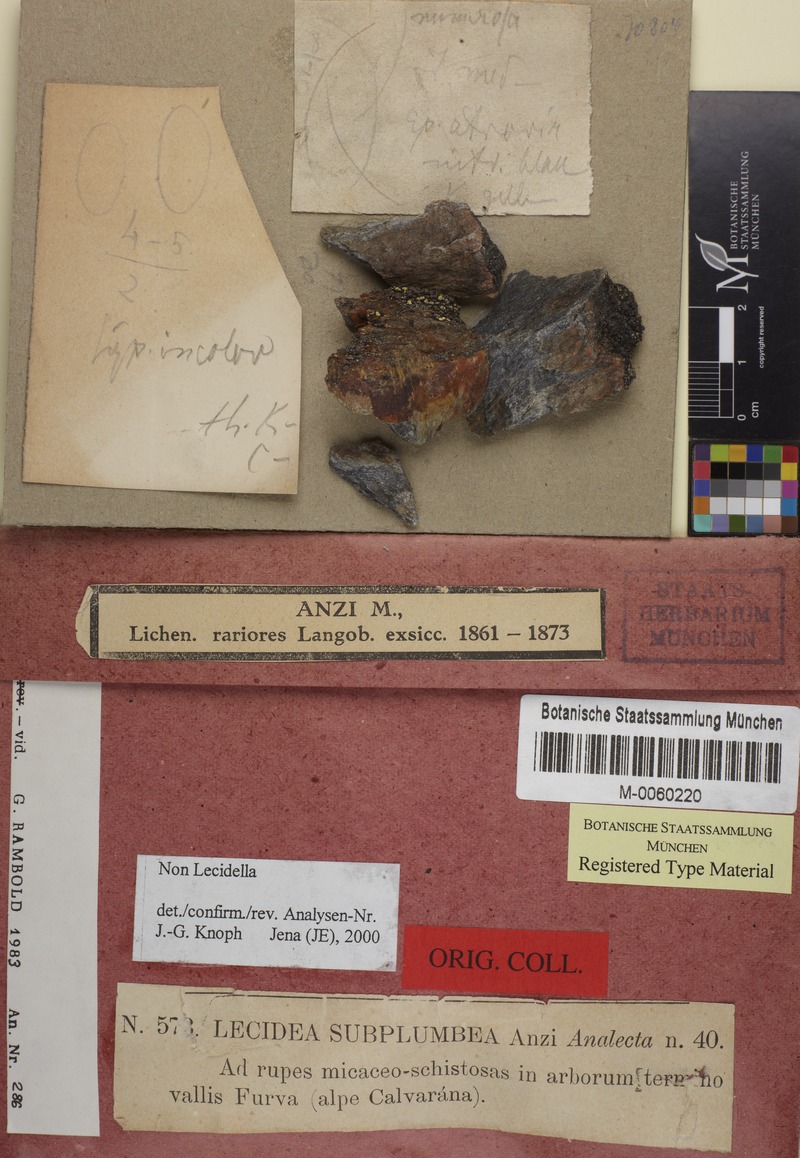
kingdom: Fungi
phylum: Ascomycota
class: Lecanoromycetes
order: Lecanorales
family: Lecanoraceae
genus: Miriquidica
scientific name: Miriquidica subplumbea
